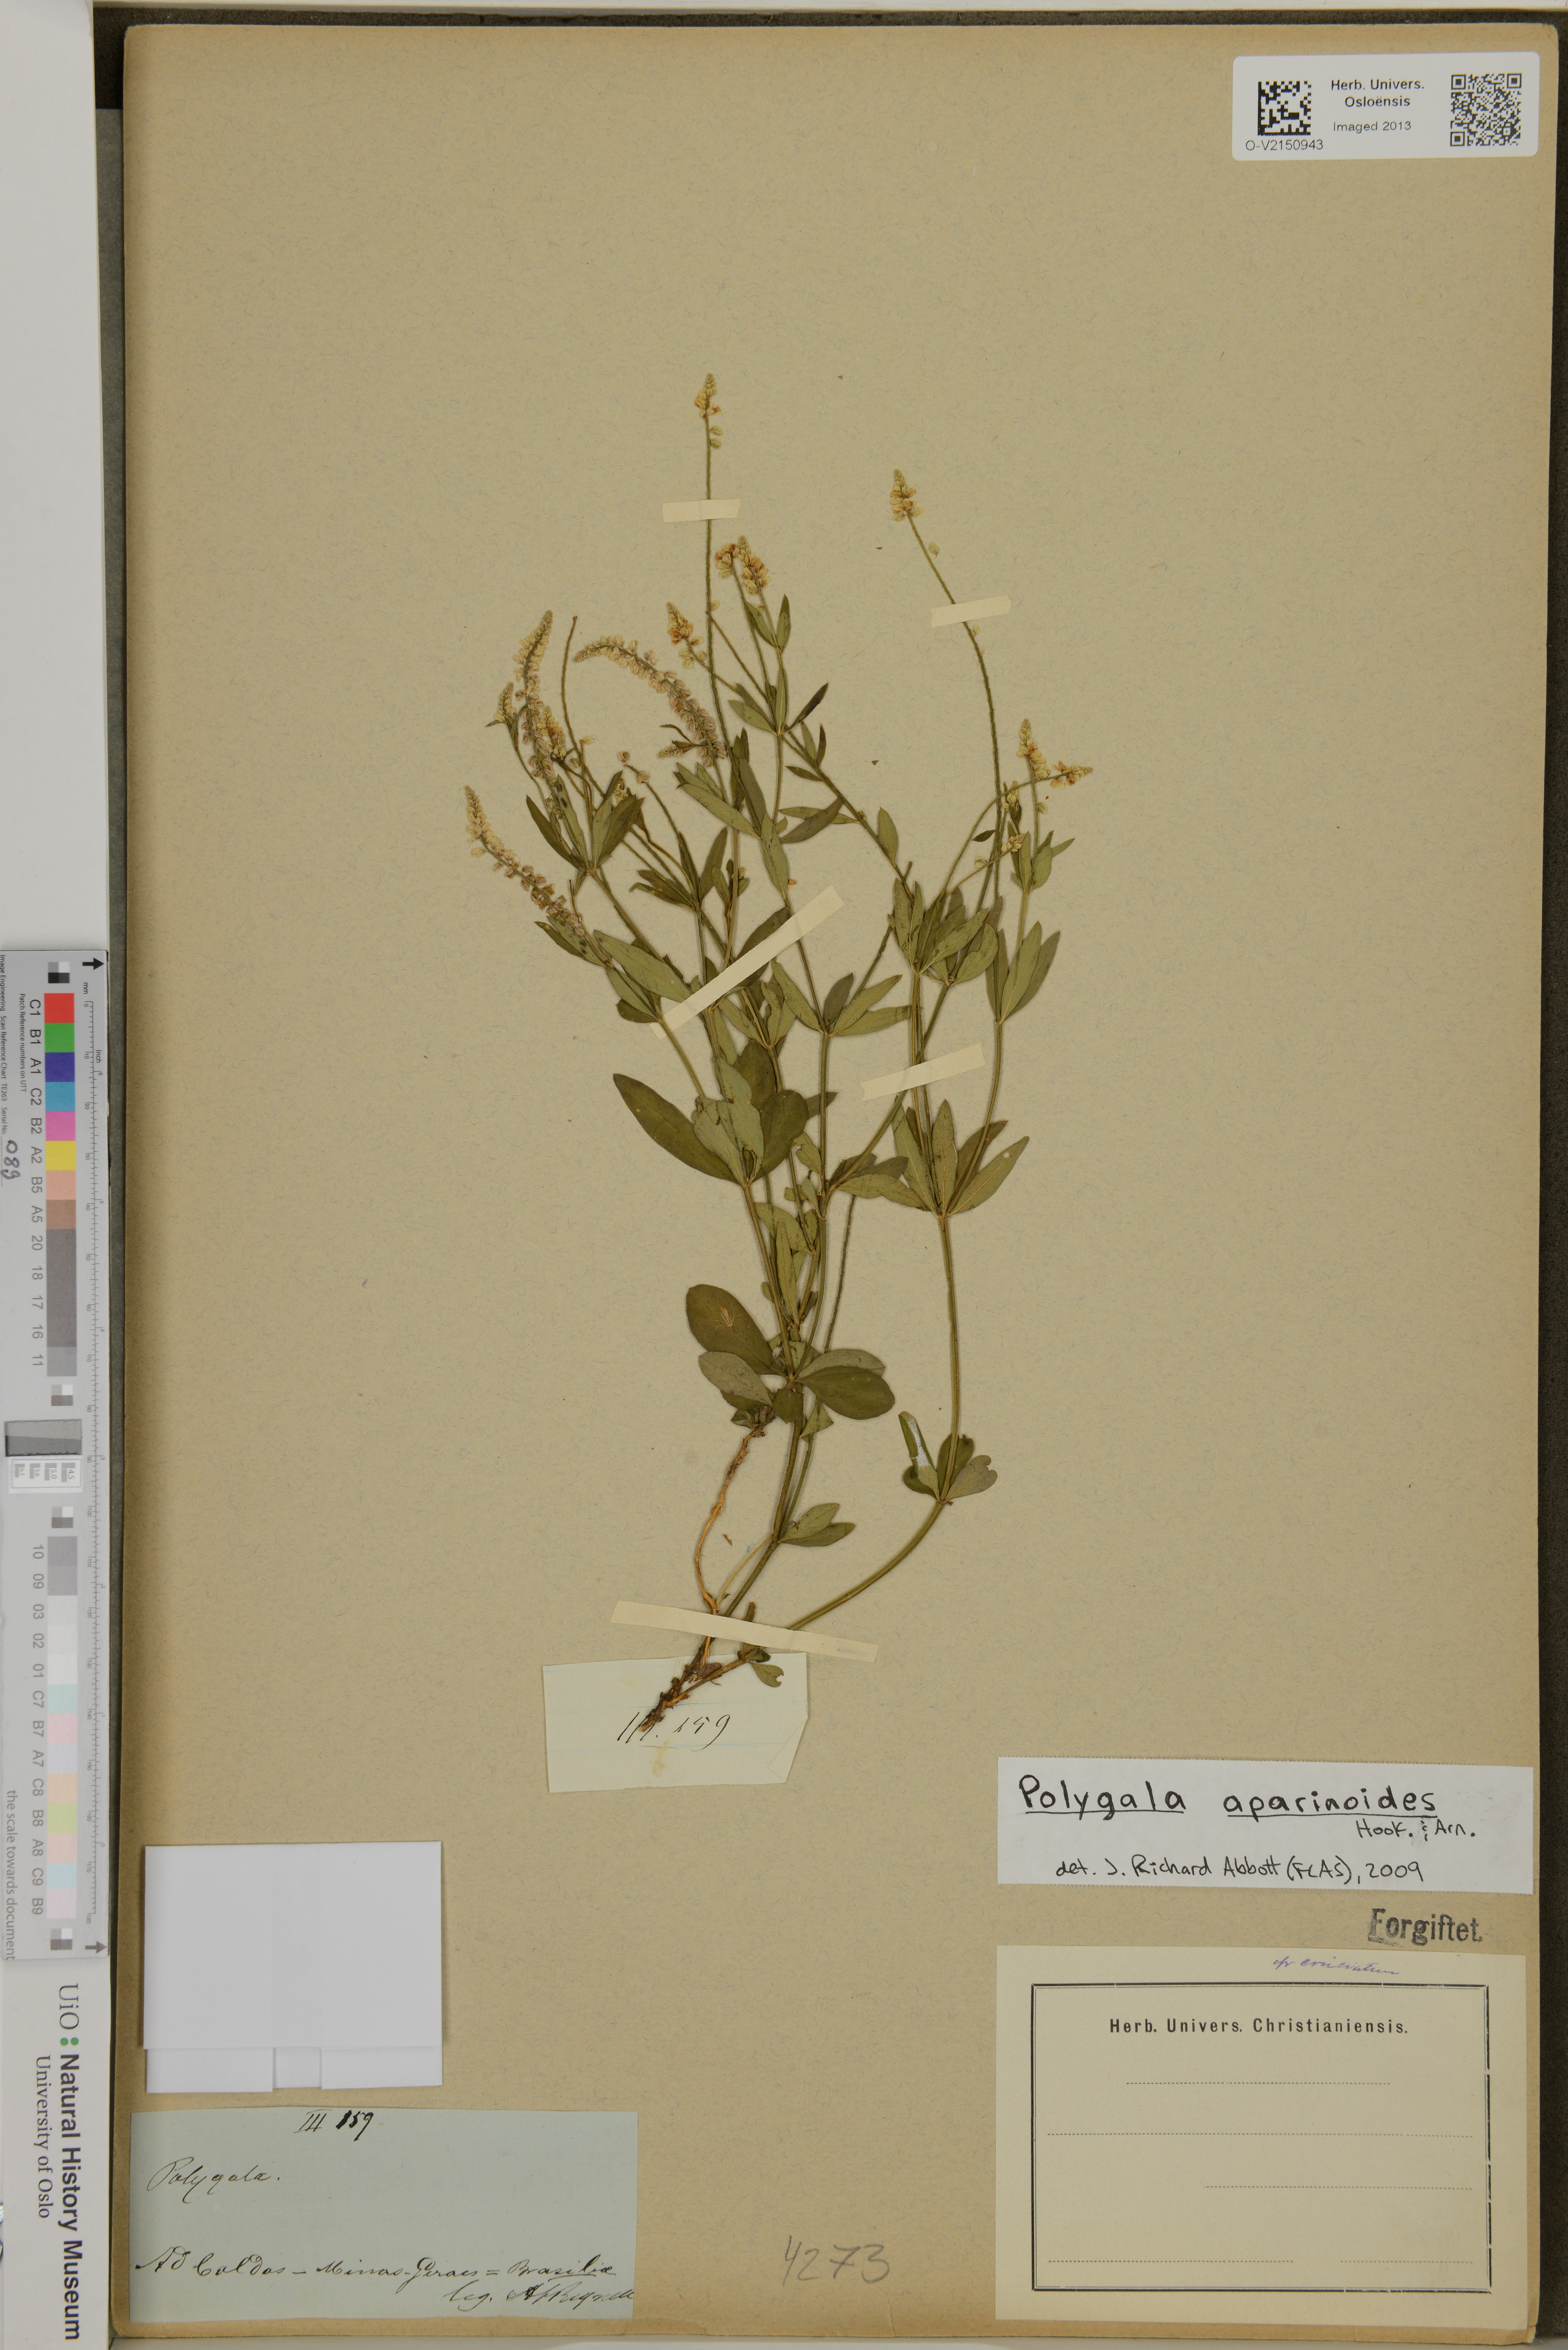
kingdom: Plantae
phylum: Tracheophyta
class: Magnoliopsida
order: Fabales
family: Polygalaceae
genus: Polygala
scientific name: Polygala aparinoides
